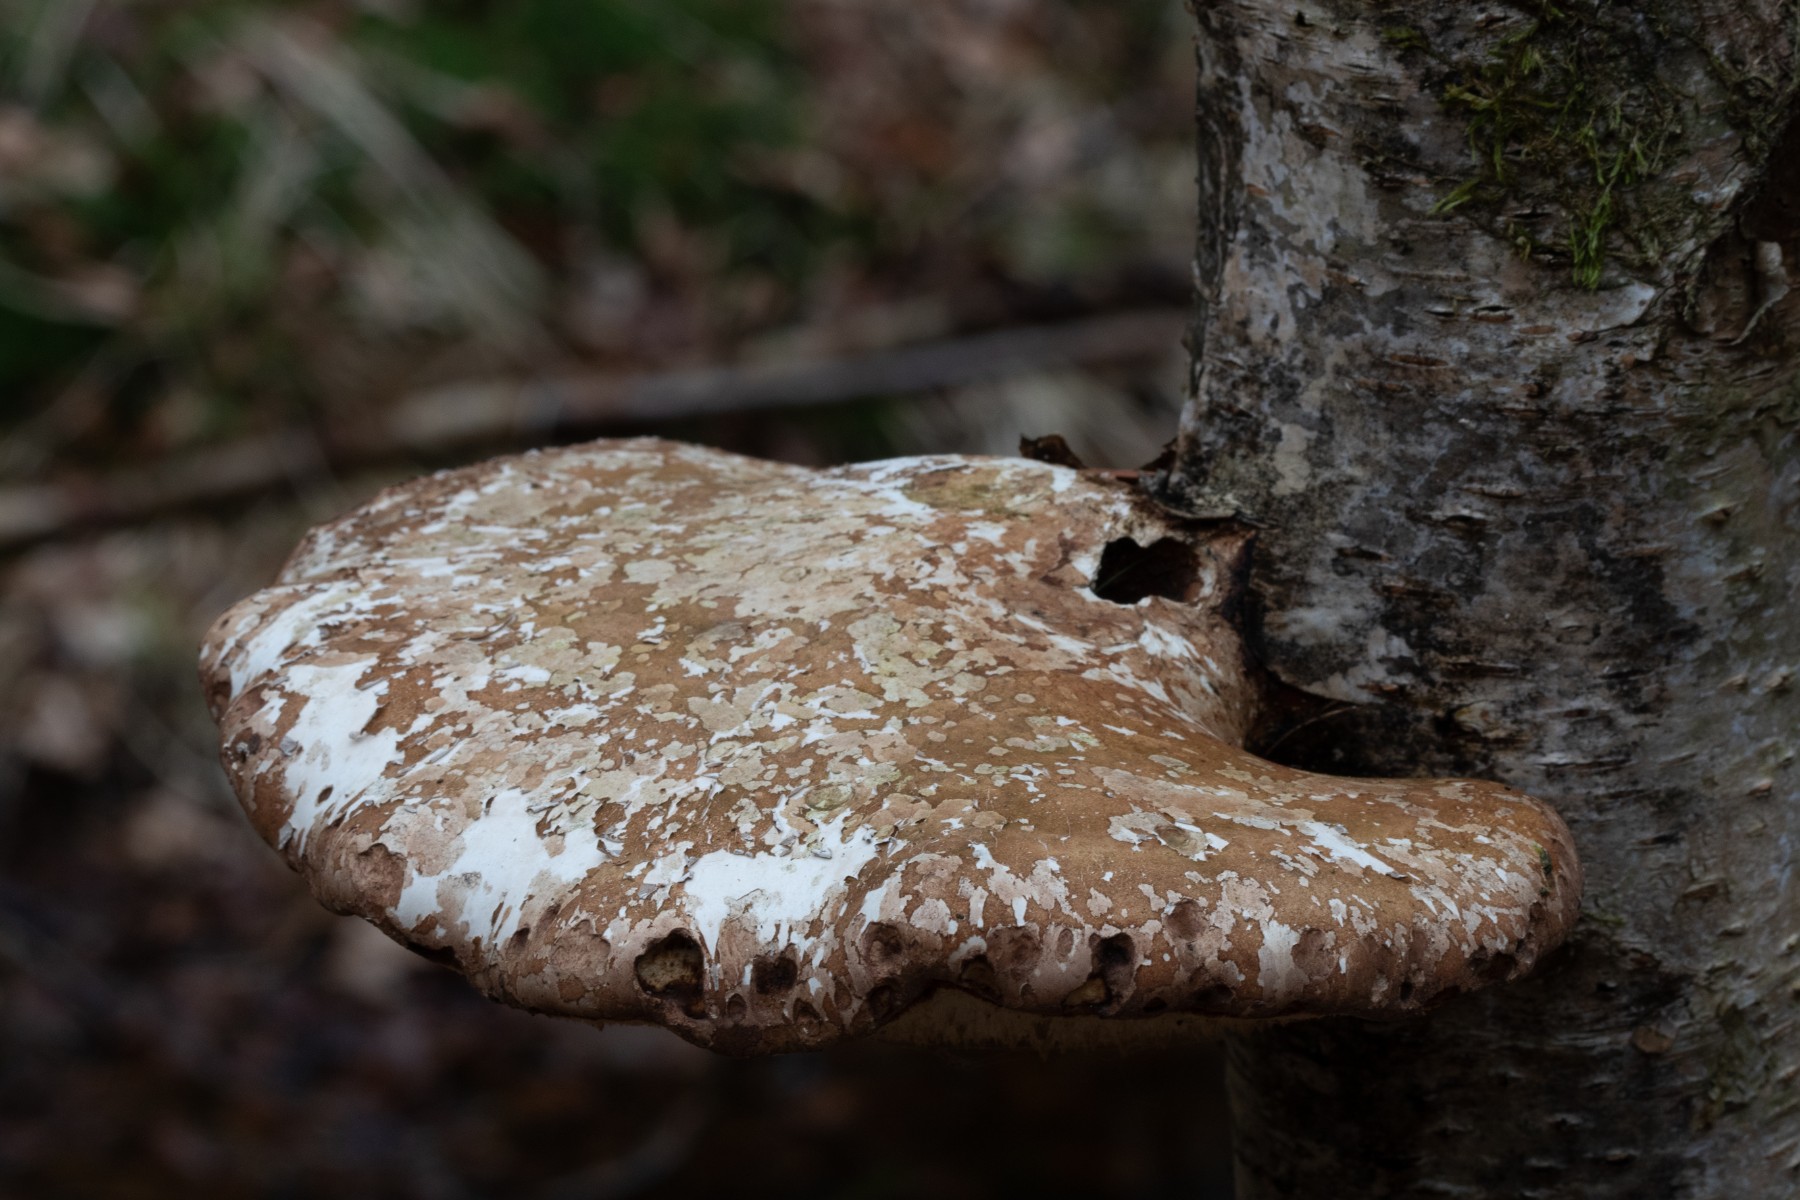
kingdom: Fungi
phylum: Basidiomycota
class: Agaricomycetes
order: Polyporales
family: Fomitopsidaceae
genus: Fomitopsis
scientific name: Fomitopsis betulina
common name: birkeporesvamp
